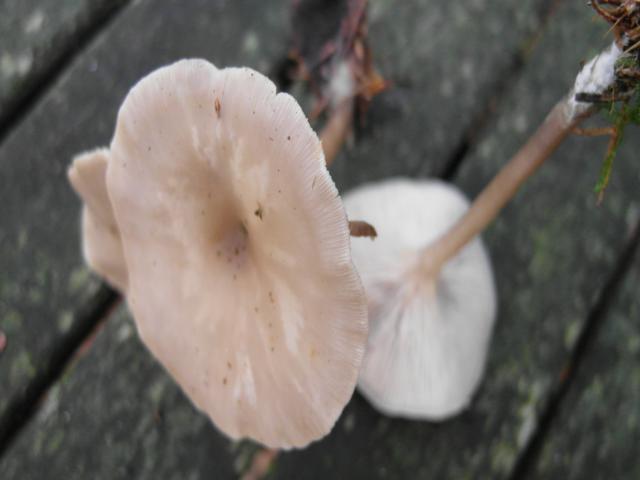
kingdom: Fungi
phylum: Basidiomycota
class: Agaricomycetes
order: Agaricales
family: Tricholomataceae
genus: Clitocybe
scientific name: Clitocybe metachroa
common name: grå tragthat
